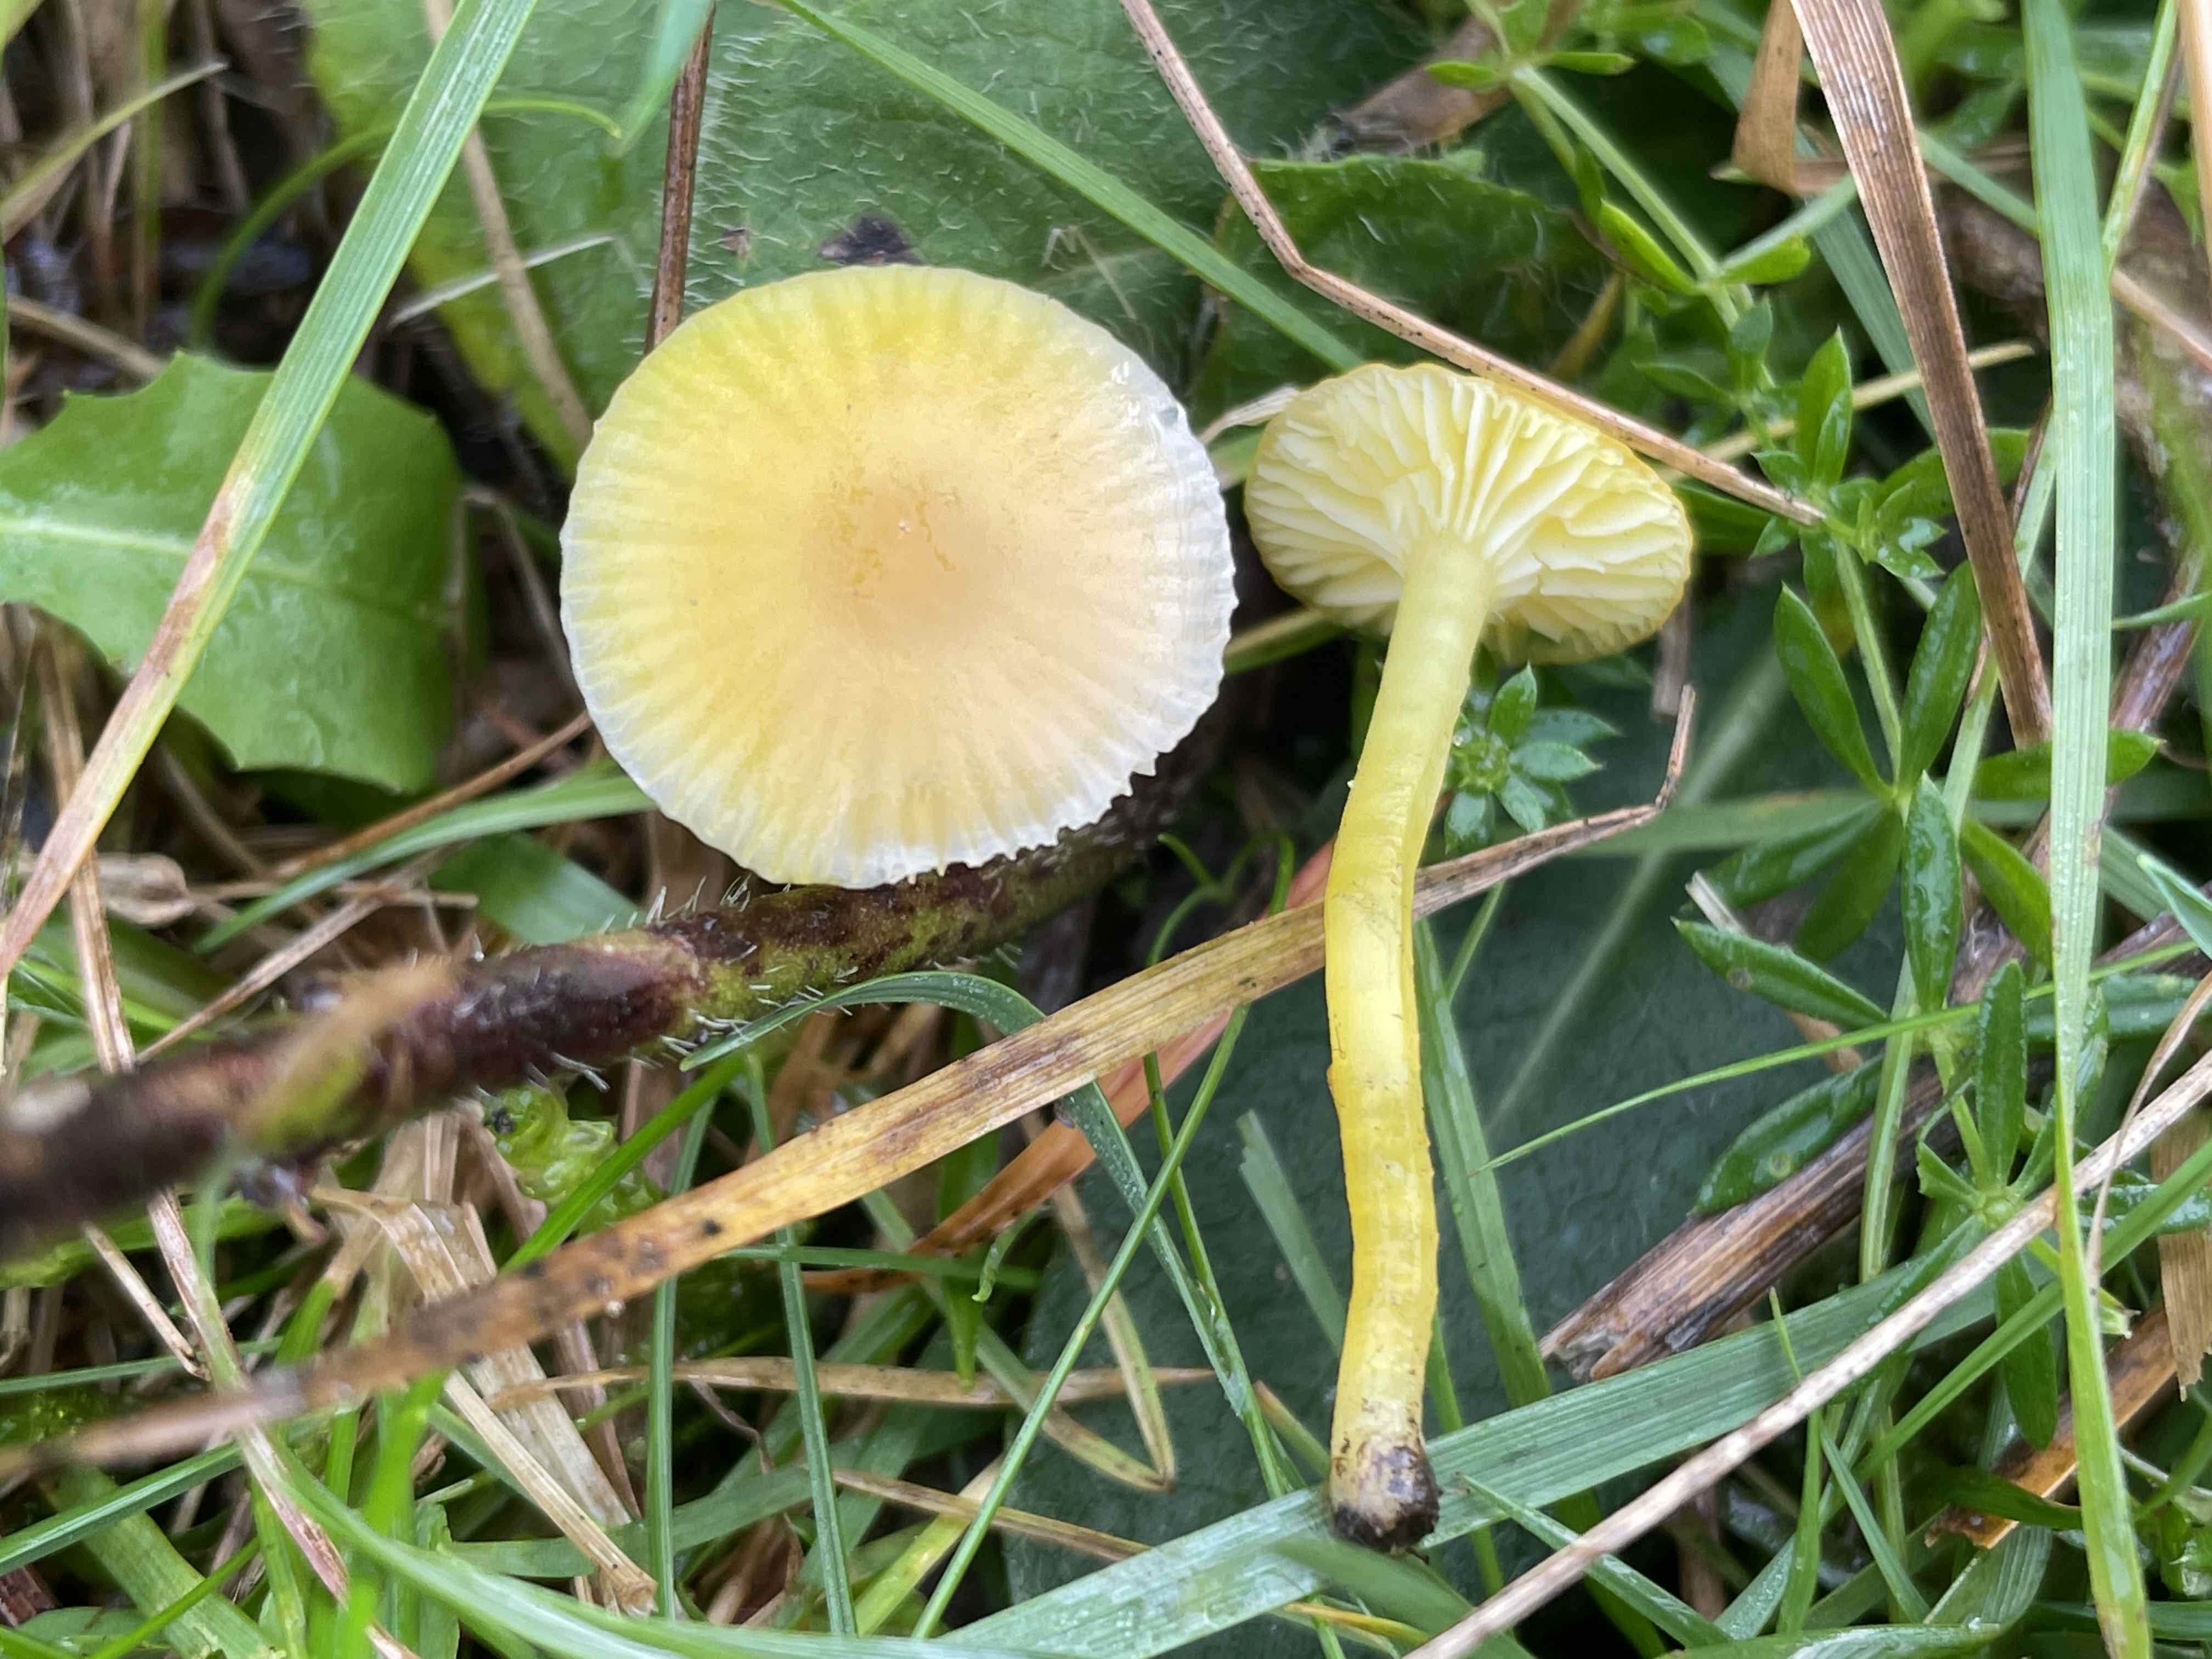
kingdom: Fungi
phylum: Basidiomycota
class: Agaricomycetes
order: Agaricales
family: Hygrophoraceae
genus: Hygrocybe
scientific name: Hygrocybe glutinipes
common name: slimstokket vokshat
